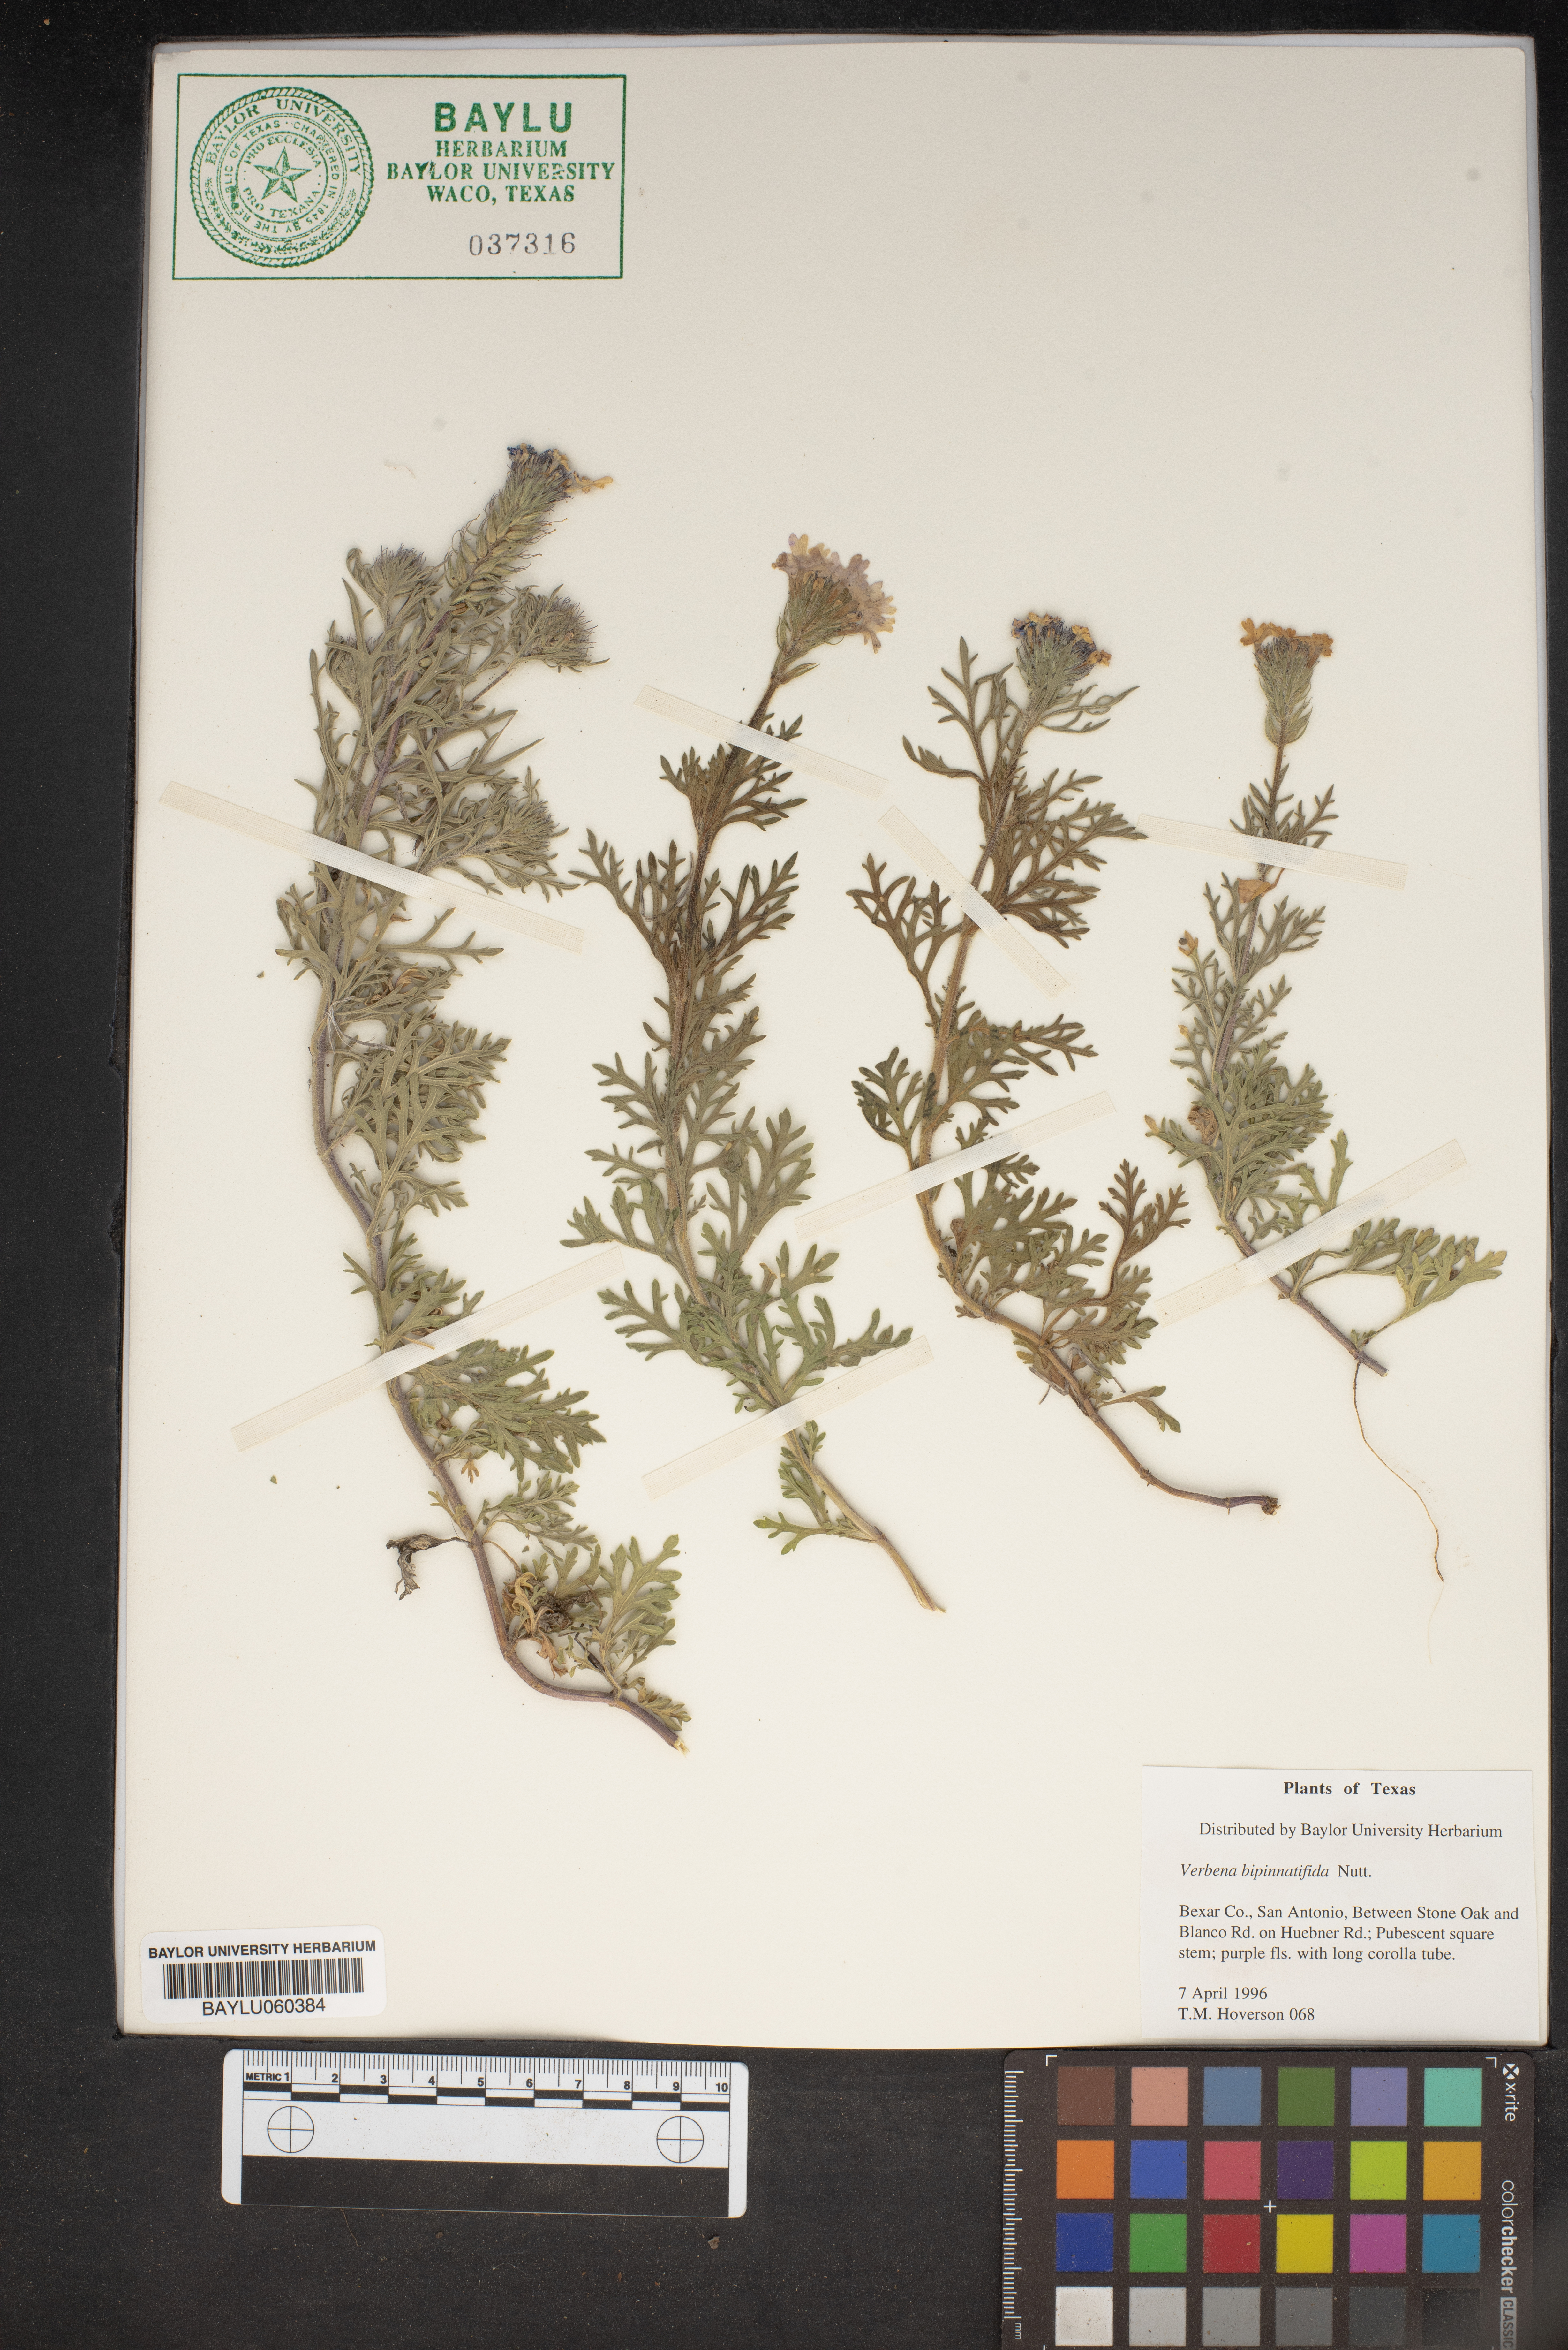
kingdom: Plantae
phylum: Tracheophyta
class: Magnoliopsida
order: Lamiales
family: Verbenaceae
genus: Verbena
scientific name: Verbena bipinnatifida
